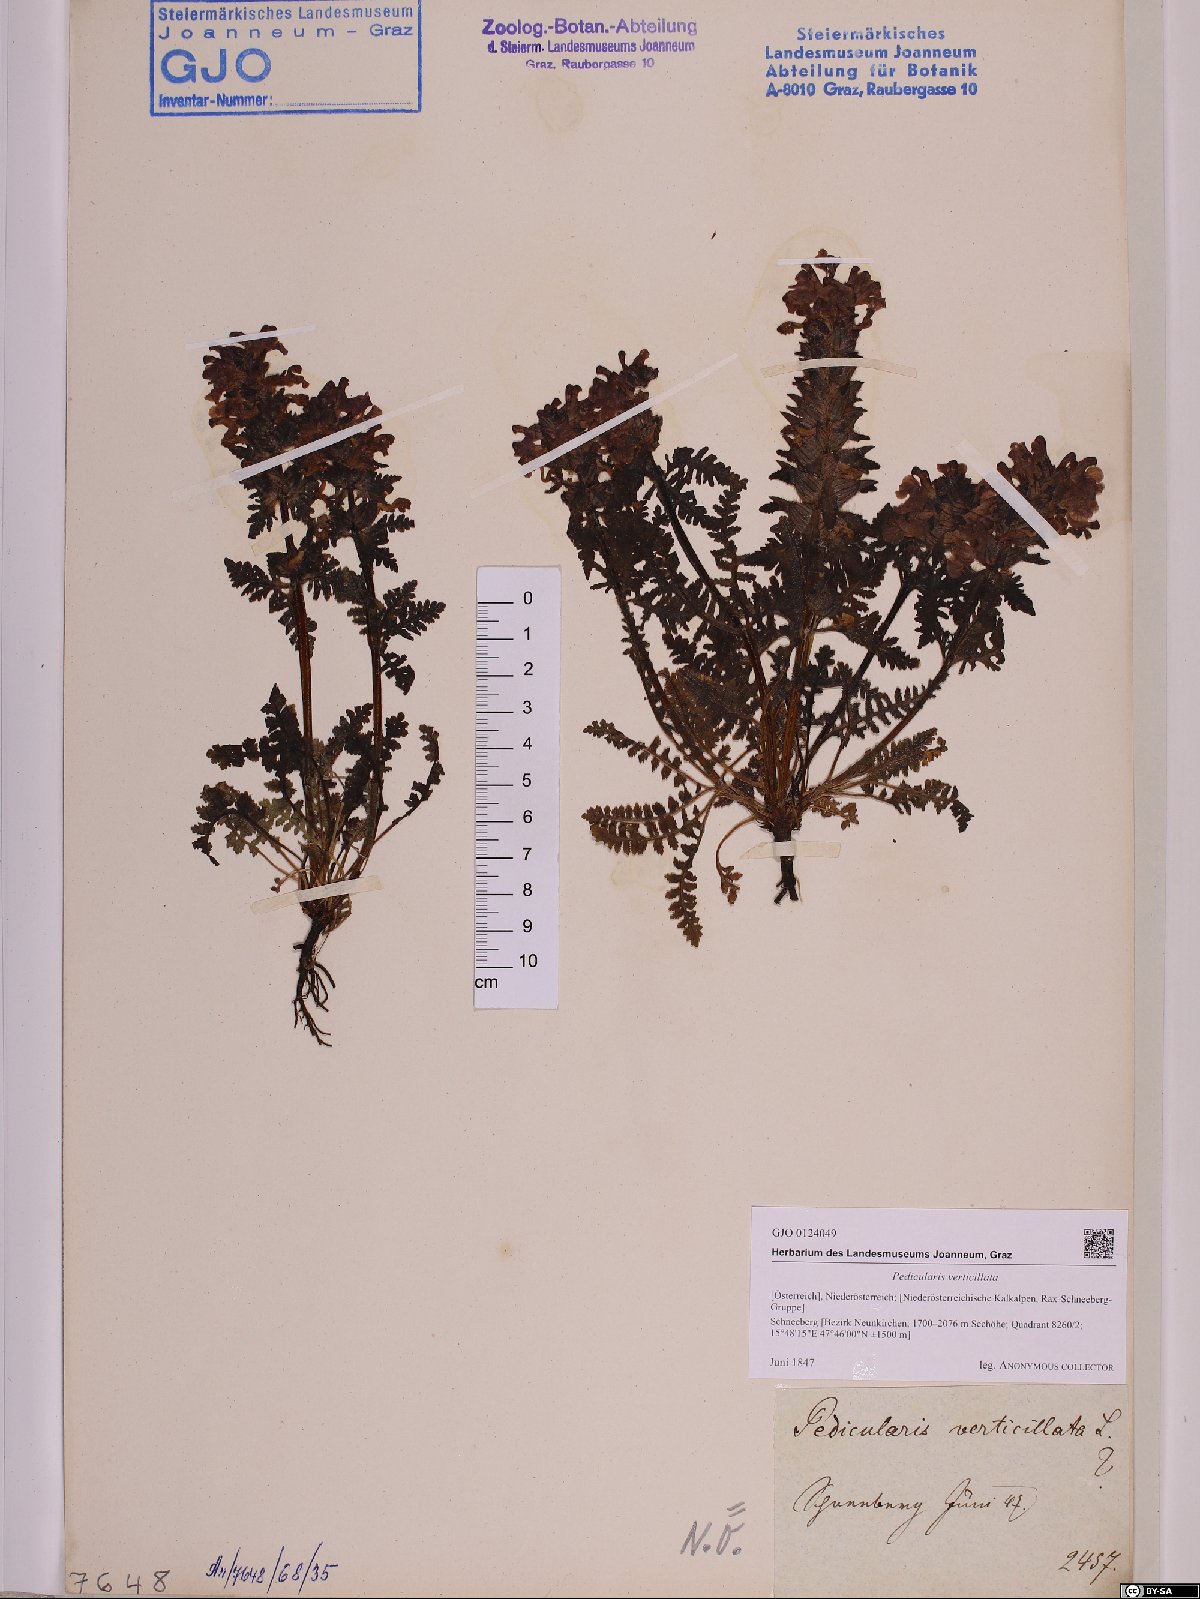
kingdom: Plantae
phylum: Tracheophyta
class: Magnoliopsida
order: Lamiales
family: Orobanchaceae
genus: Pedicularis
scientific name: Pedicularis verticillata
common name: Whorled lousewort
